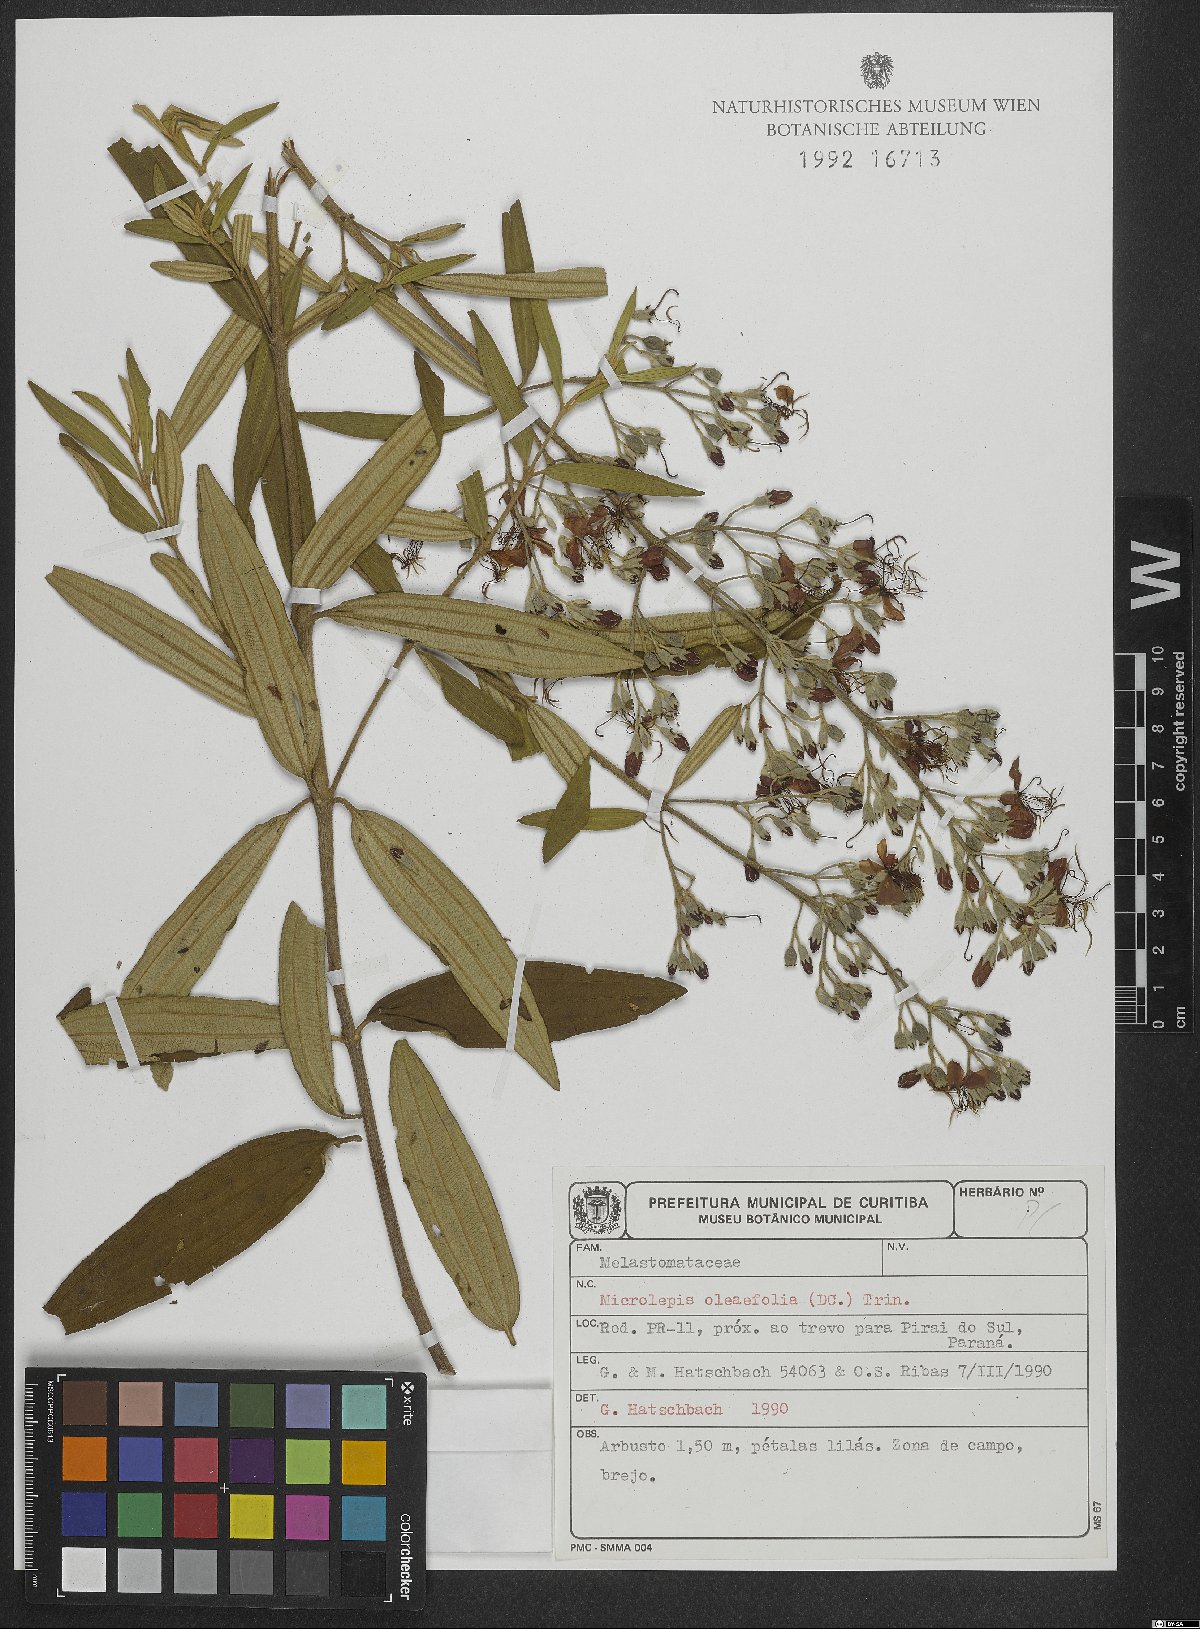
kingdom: Plantae
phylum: Tracheophyta
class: Magnoliopsida
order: Myrtales
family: Melastomataceae
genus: Pleroma
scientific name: Pleroma oleifolia
